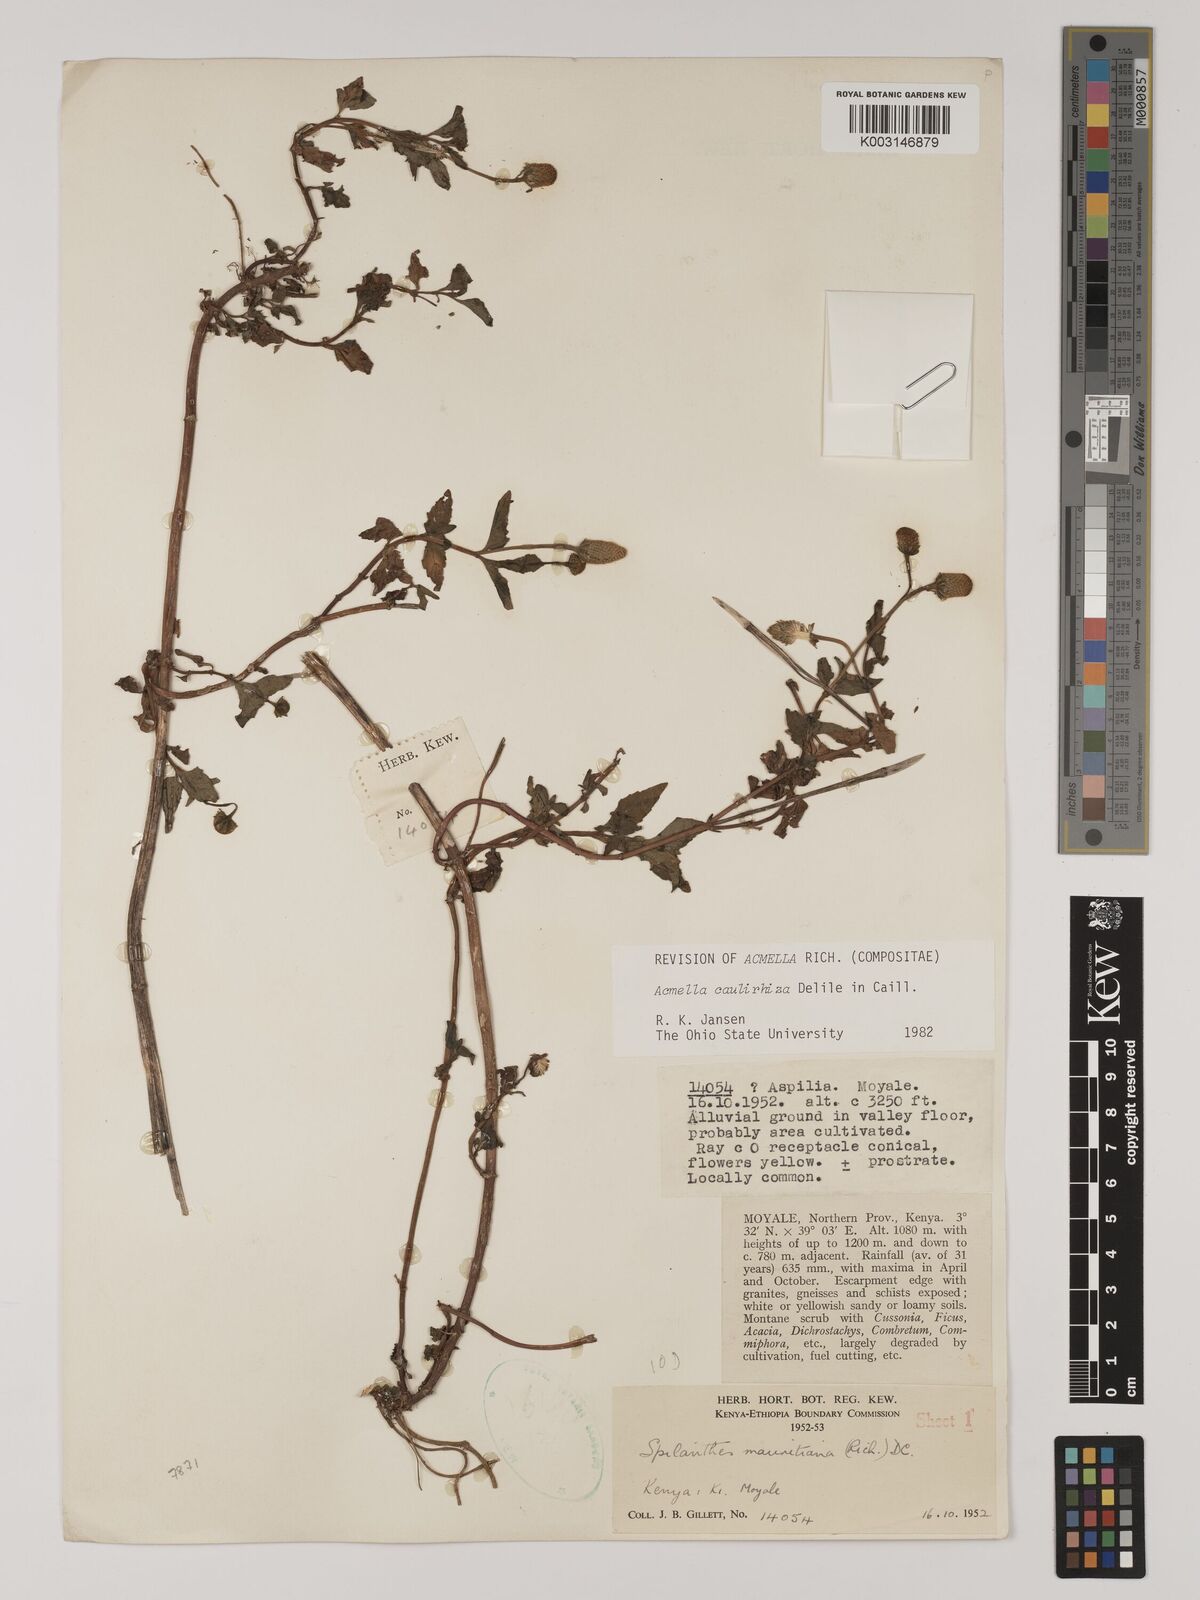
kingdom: Plantae
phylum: Tracheophyta
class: Magnoliopsida
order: Asterales
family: Asteraceae
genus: Acmella
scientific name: Acmella caulirhiza
